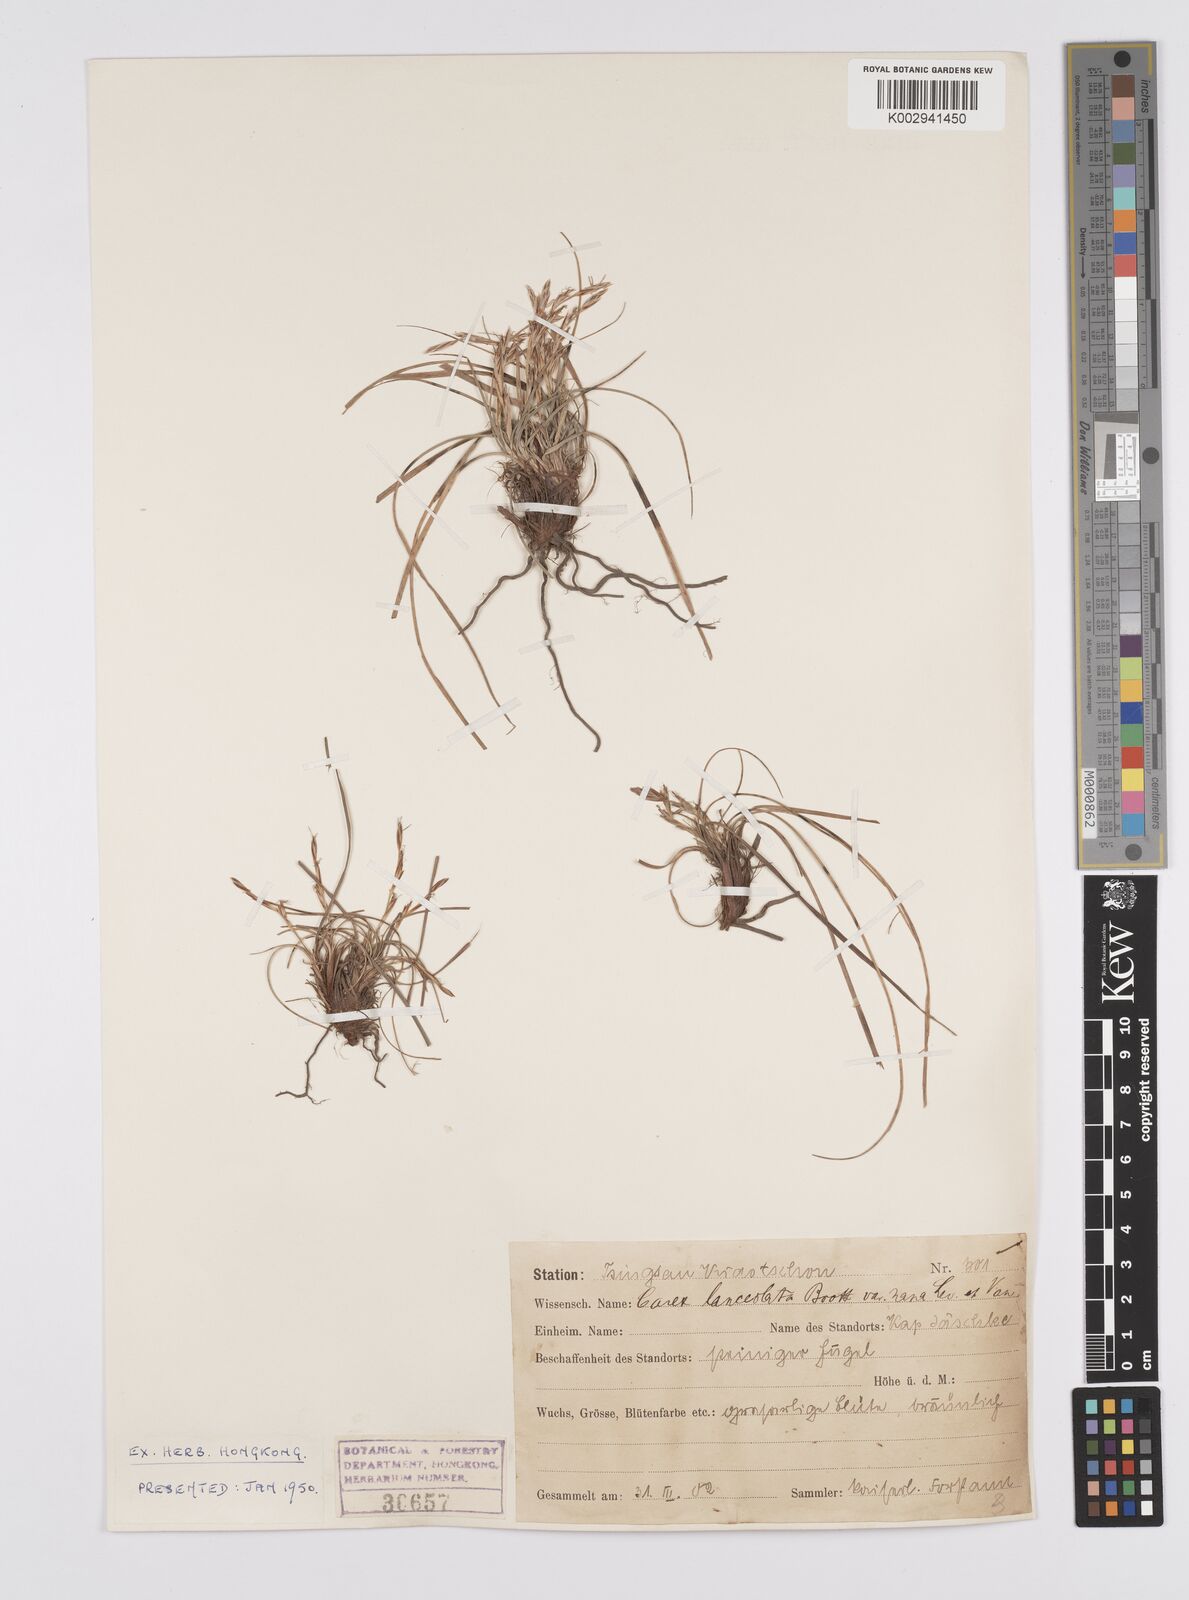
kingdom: Plantae
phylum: Tracheophyta
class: Liliopsida
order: Poales
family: Cyperaceae
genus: Carex
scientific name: Carex lanceolata
